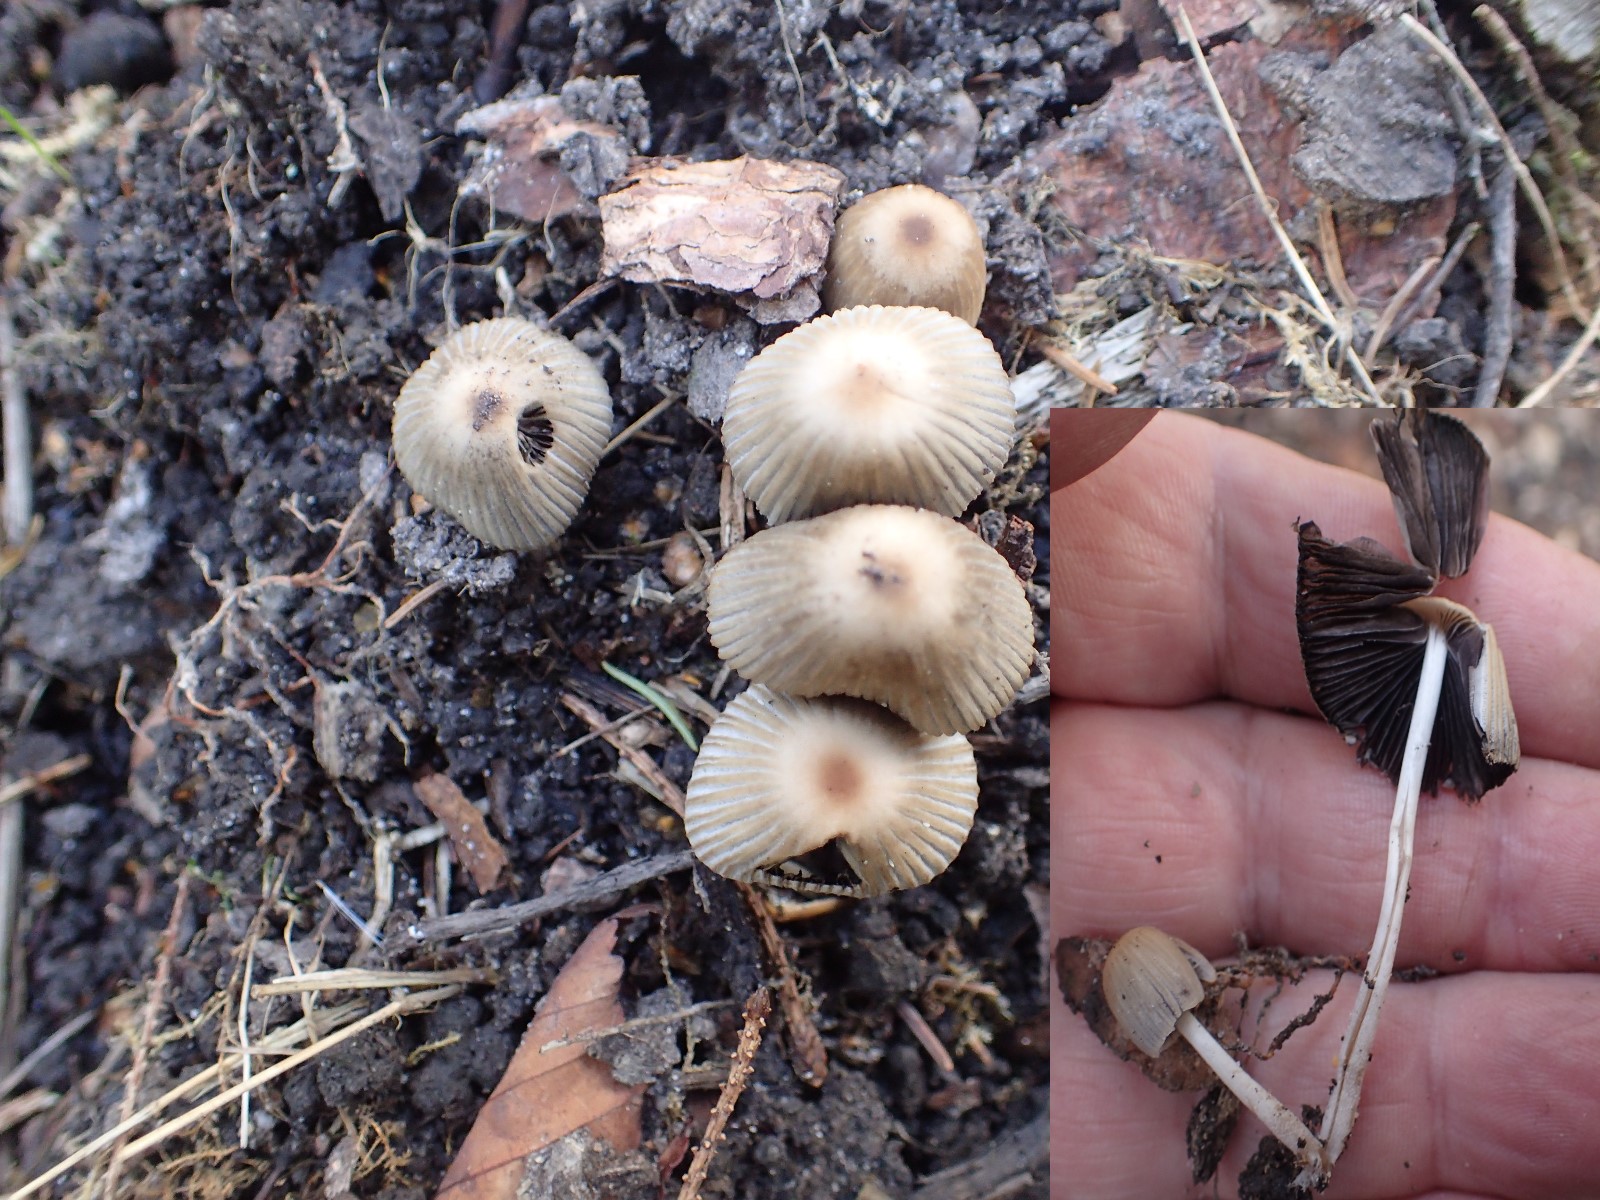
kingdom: Fungi
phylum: Basidiomycota
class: Agaricomycetes
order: Agaricales
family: Psathyrellaceae
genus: Coprinellus
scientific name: Coprinellus
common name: blækhat
